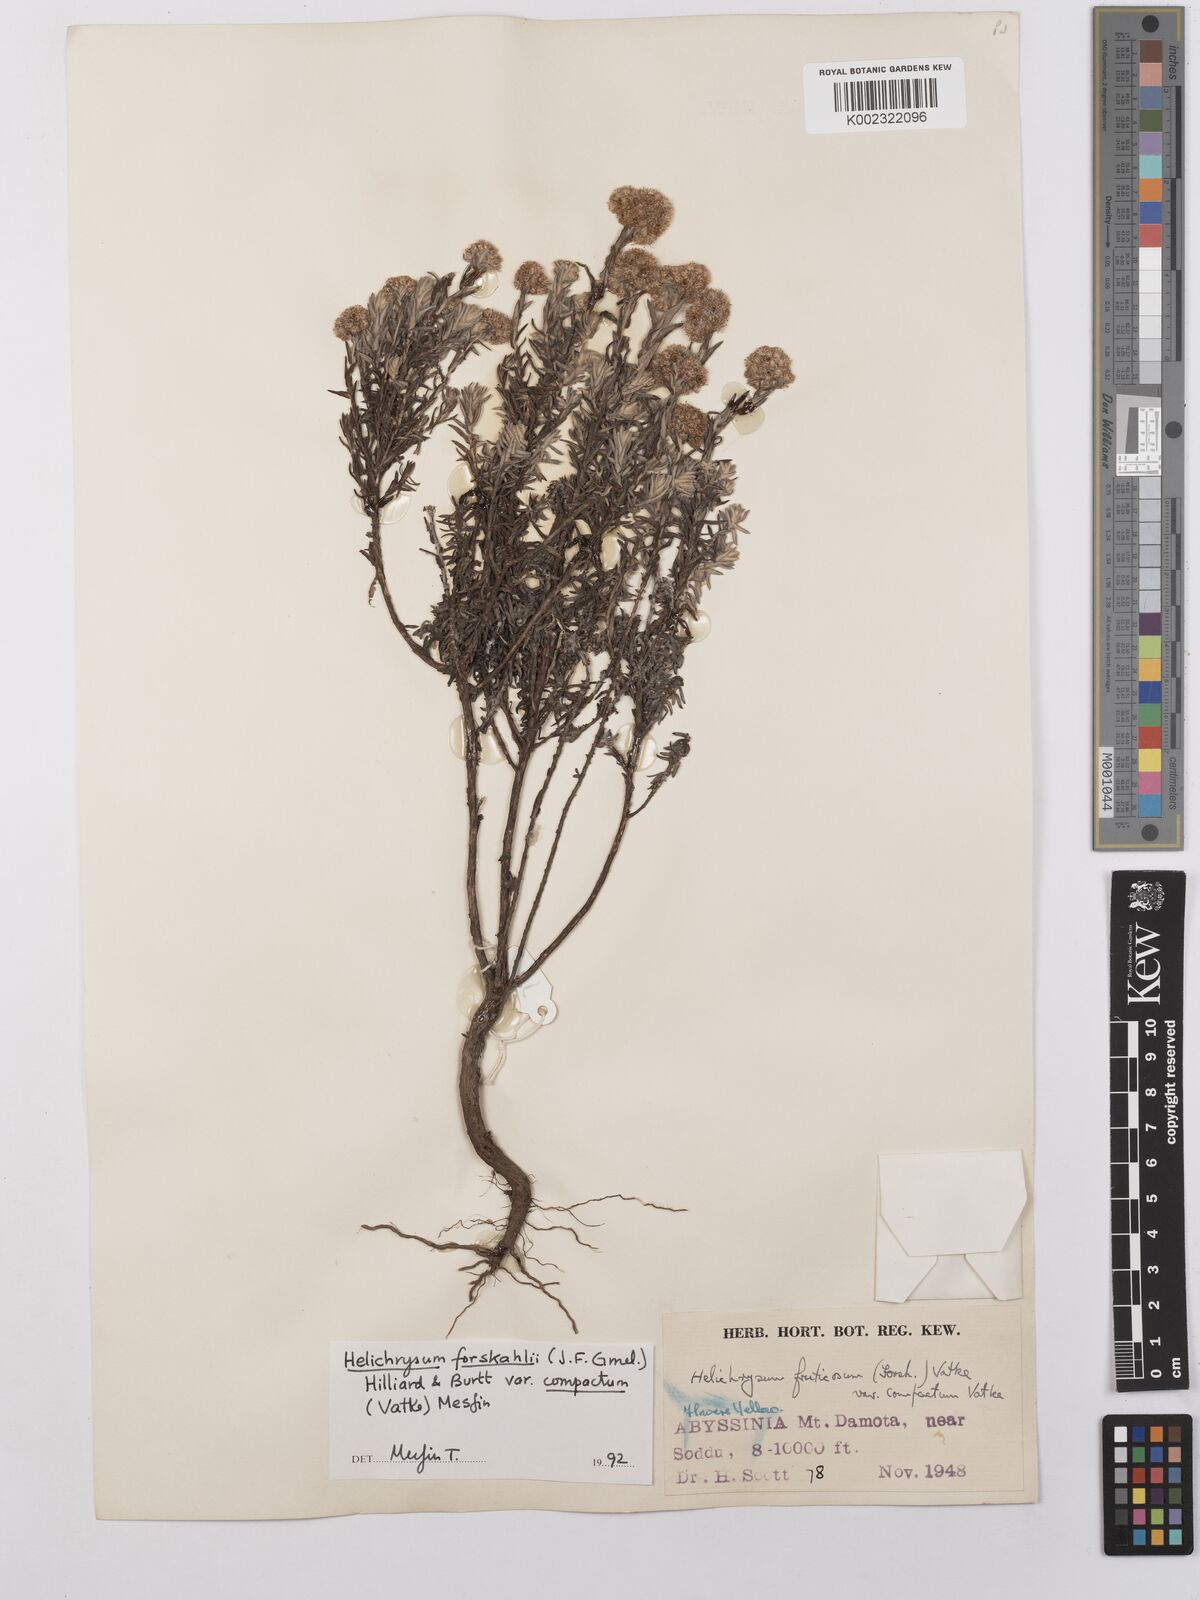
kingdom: Plantae
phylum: Tracheophyta
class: Magnoliopsida
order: Asterales
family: Asteraceae
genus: Helichrysum
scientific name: Helichrysum forskahlii
